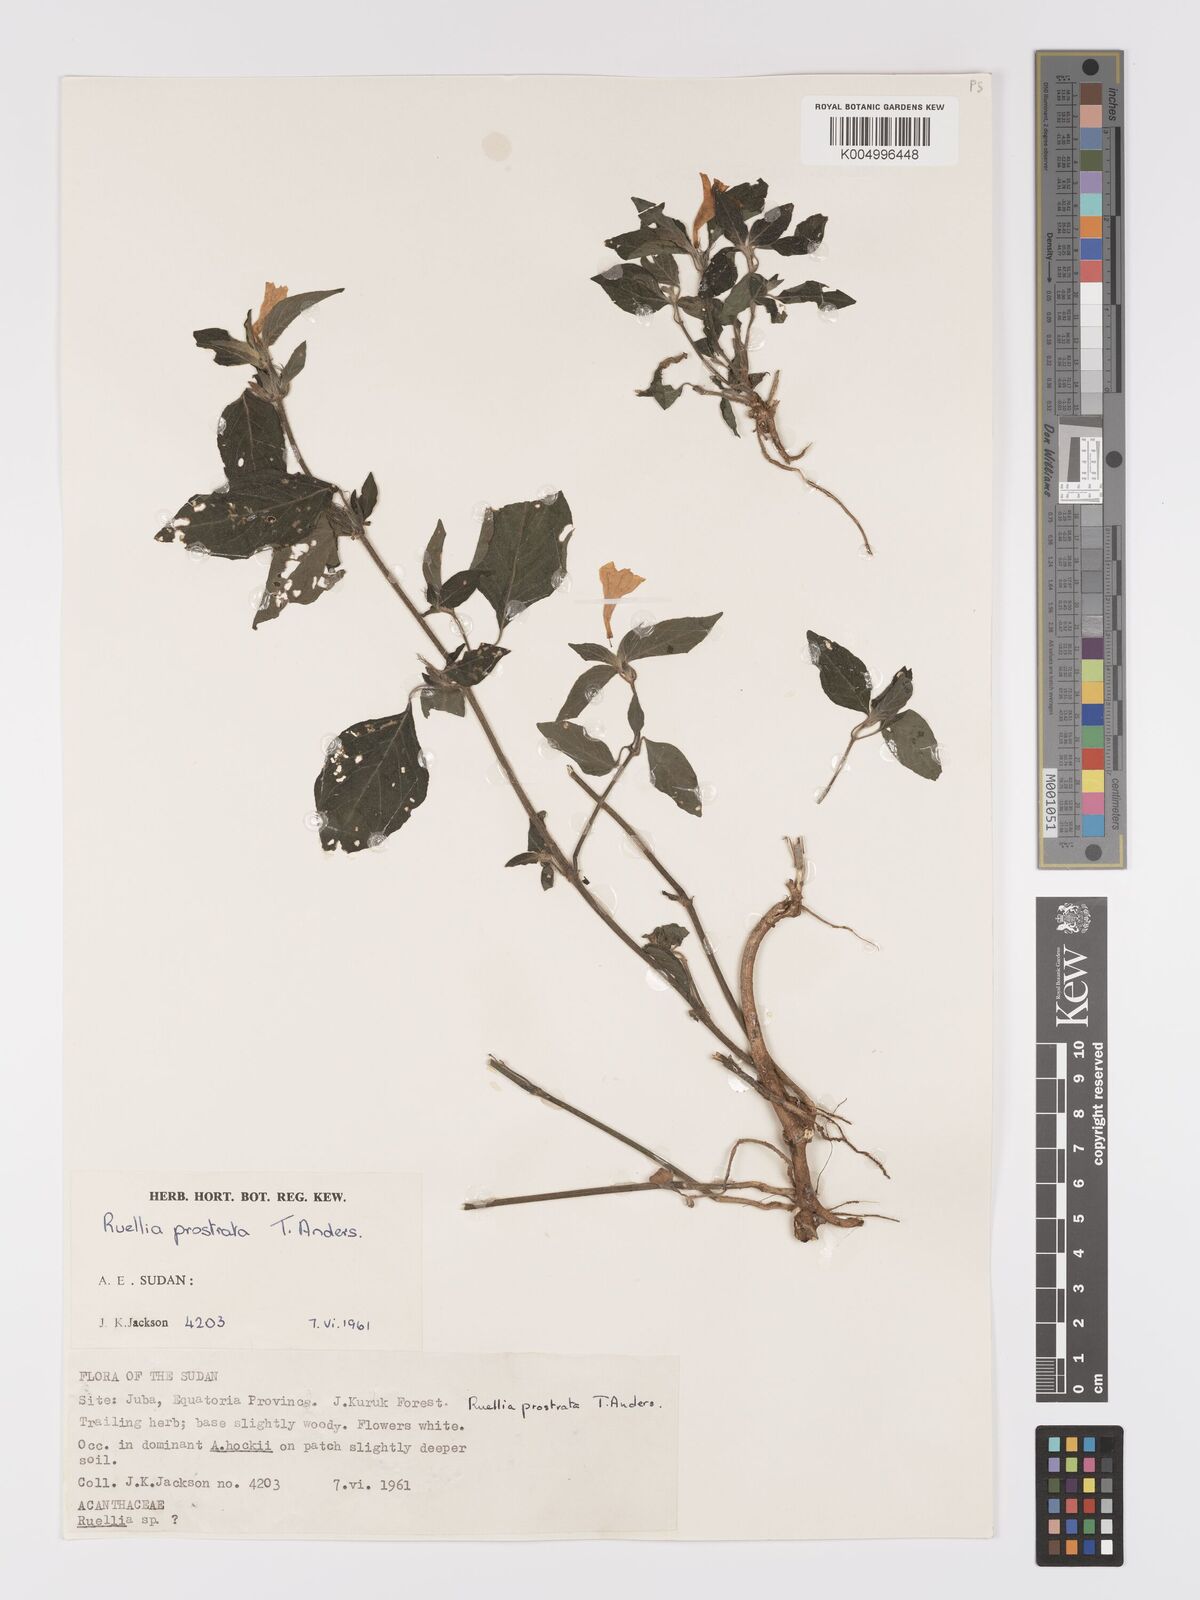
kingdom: Plantae
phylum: Tracheophyta
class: Magnoliopsida
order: Lamiales
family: Acanthaceae
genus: Ruellia
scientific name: Ruellia
